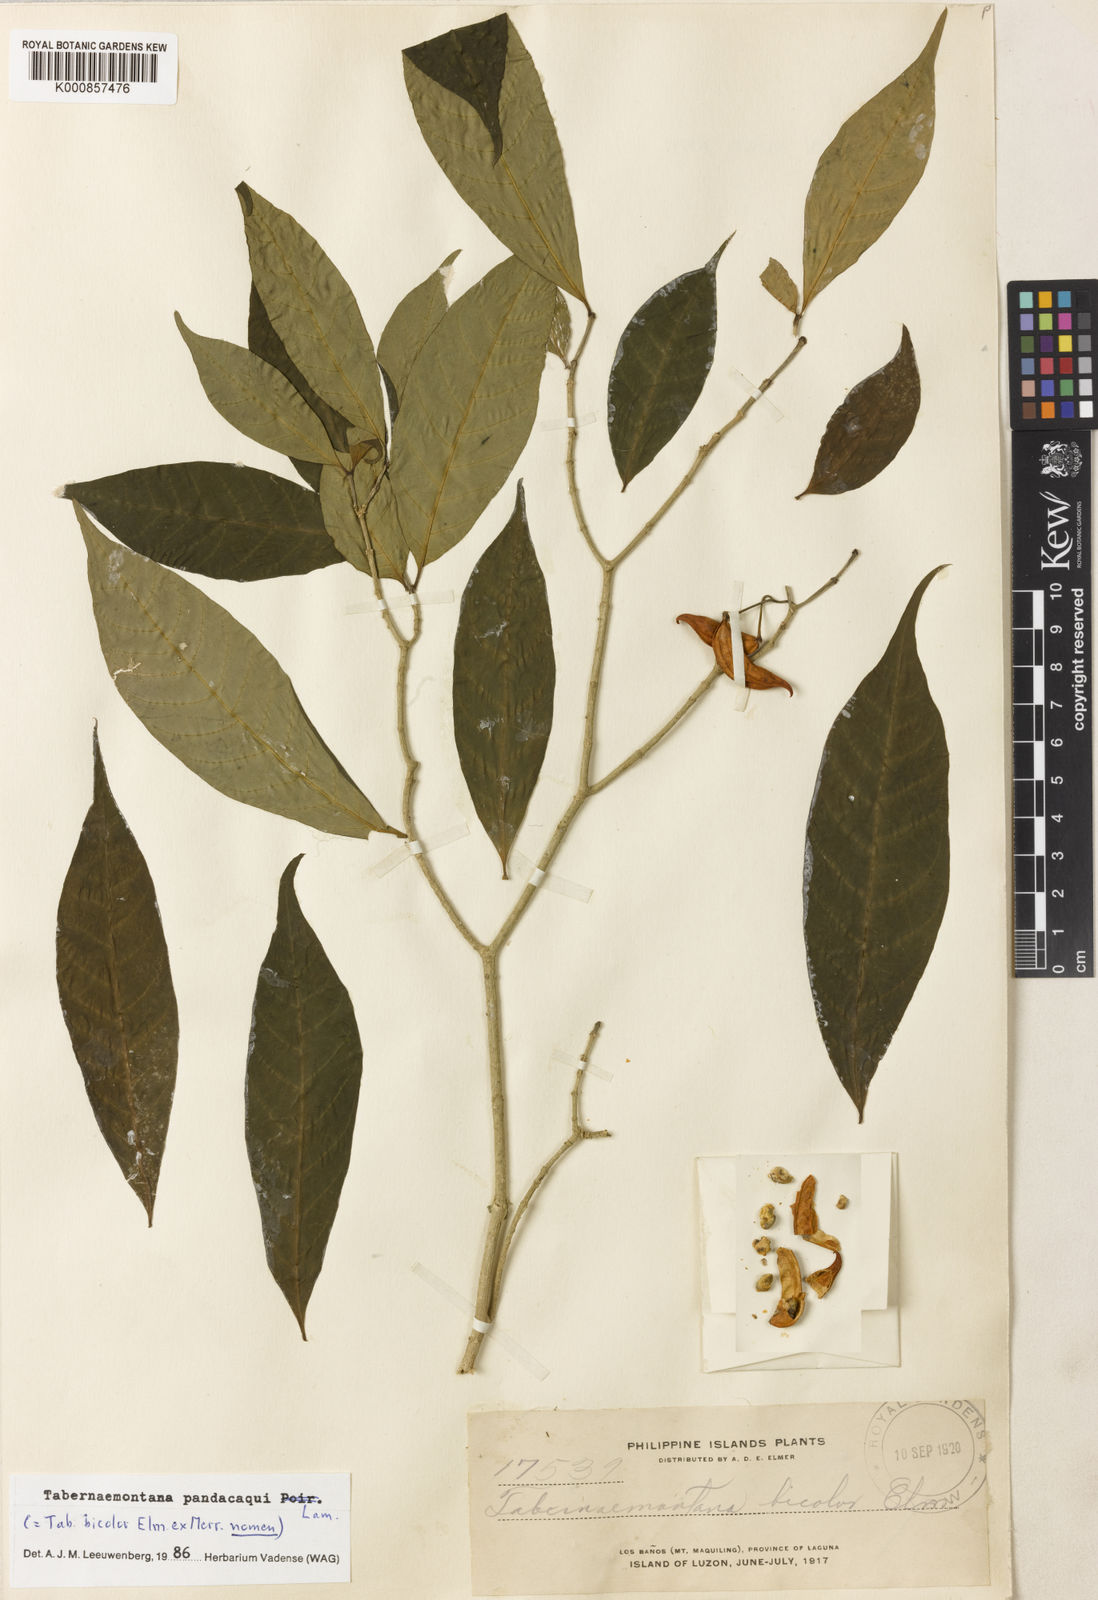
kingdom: Plantae
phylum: Tracheophyta
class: Magnoliopsida
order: Gentianales
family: Apocynaceae
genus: Tabernaemontana
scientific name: Tabernaemontana
